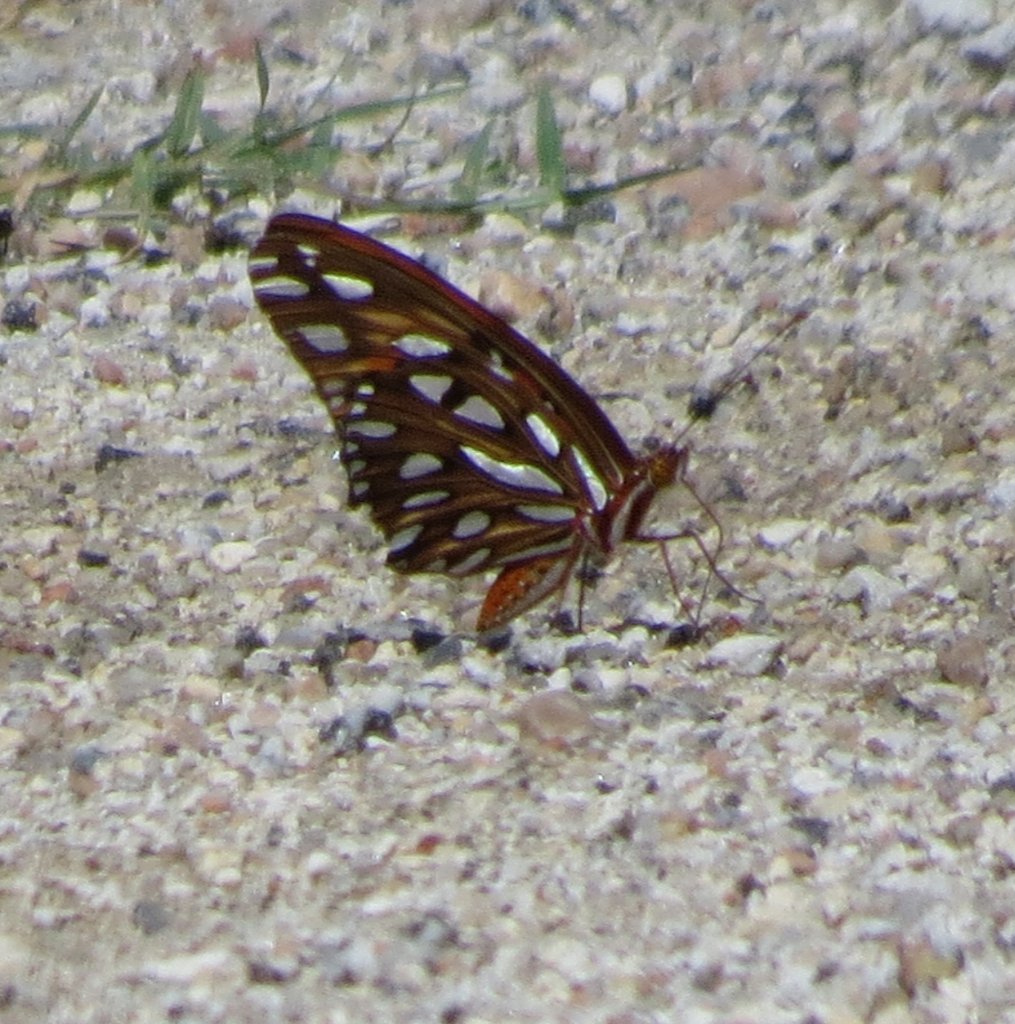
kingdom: Animalia
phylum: Arthropoda
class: Insecta
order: Lepidoptera
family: Nymphalidae
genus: Dione
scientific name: Dione vanillae
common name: Gulf Fritillary
